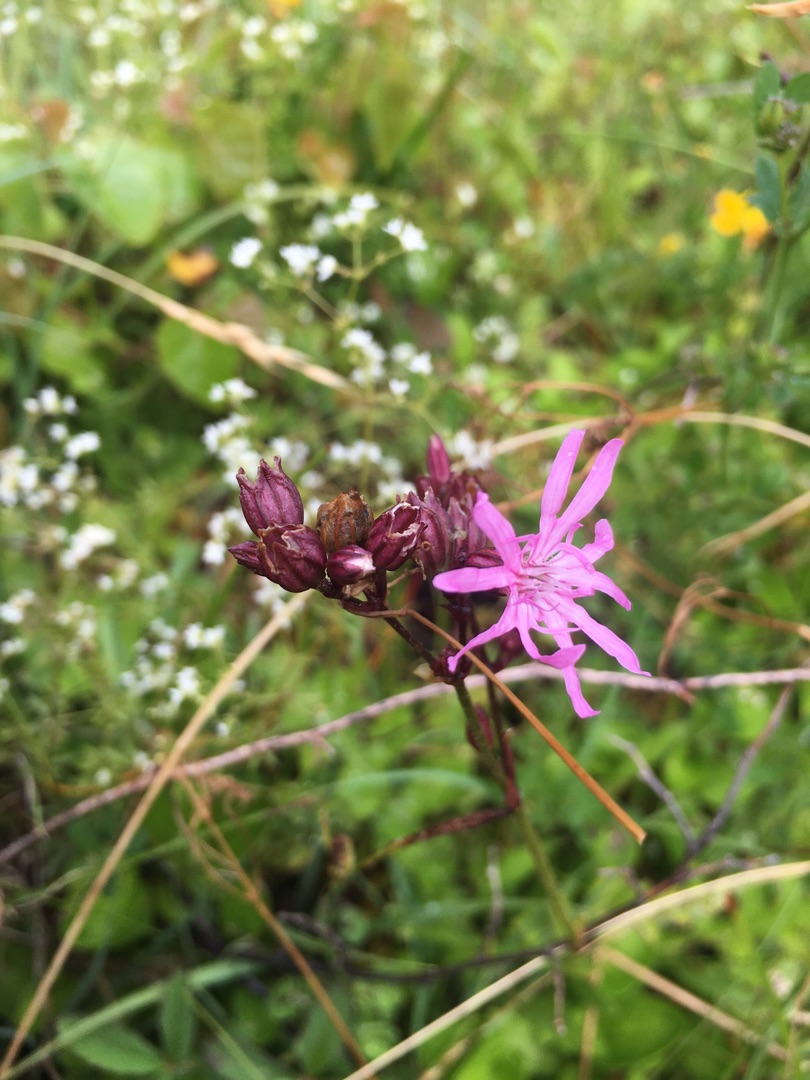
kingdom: Plantae
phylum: Tracheophyta
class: Magnoliopsida
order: Caryophyllales
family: Caryophyllaceae
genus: Silene
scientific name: Silene flos-cuculi
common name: Trævlekrone
